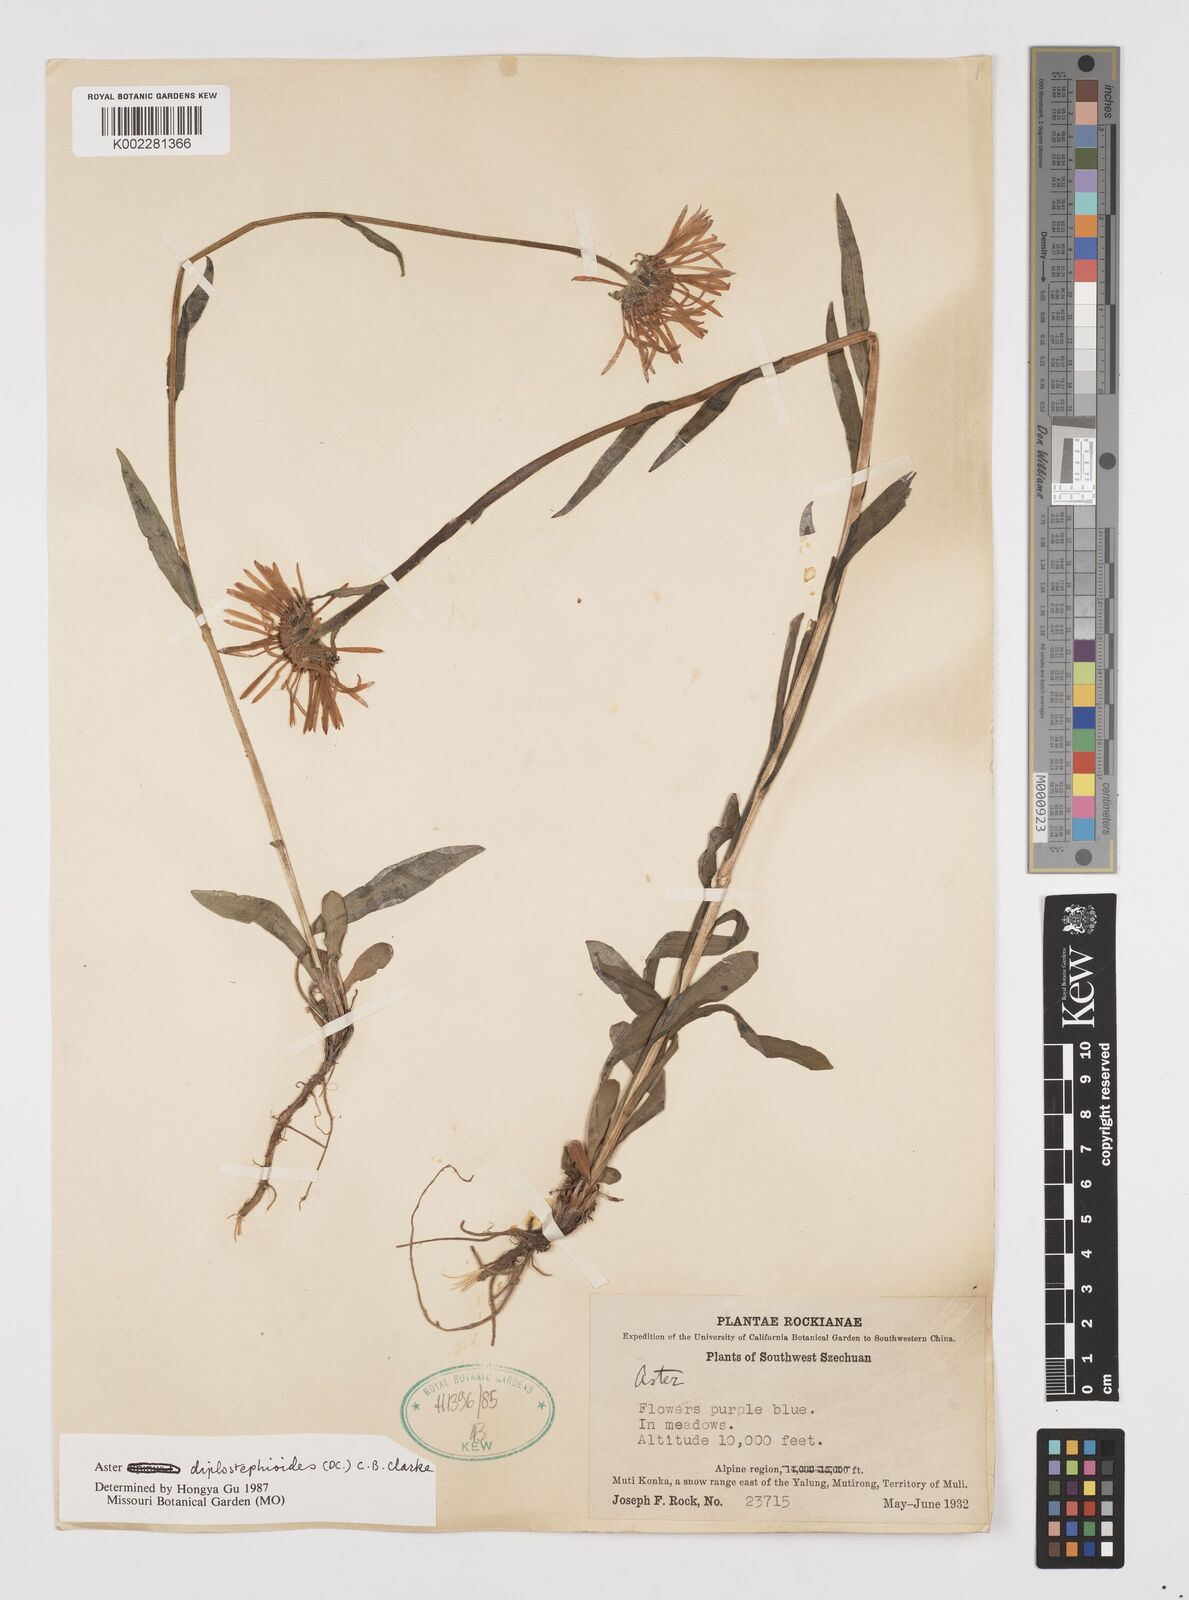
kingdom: Plantae
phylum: Tracheophyta
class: Magnoliopsida
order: Asterales
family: Asteraceae
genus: Tibetiodes
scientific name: Tibetiodes diplostephioides
